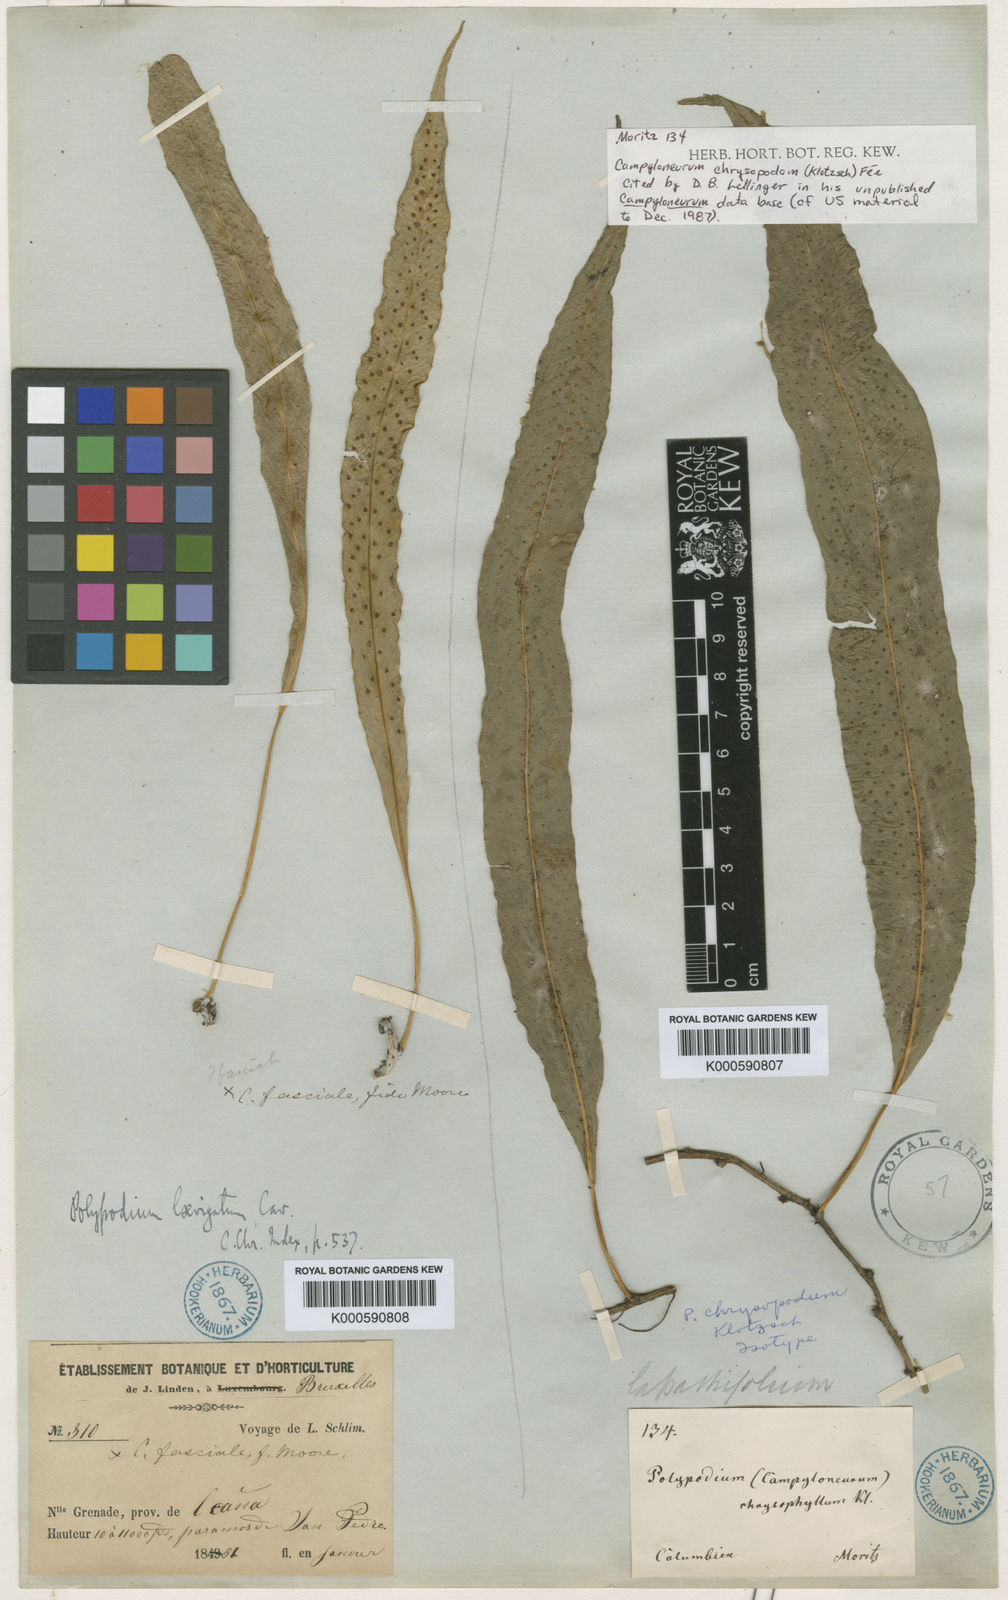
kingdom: Plantae
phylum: Tracheophyta
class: Polypodiopsida
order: Polypodiales
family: Polypodiaceae
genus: Campyloneurum
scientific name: Campyloneurum
